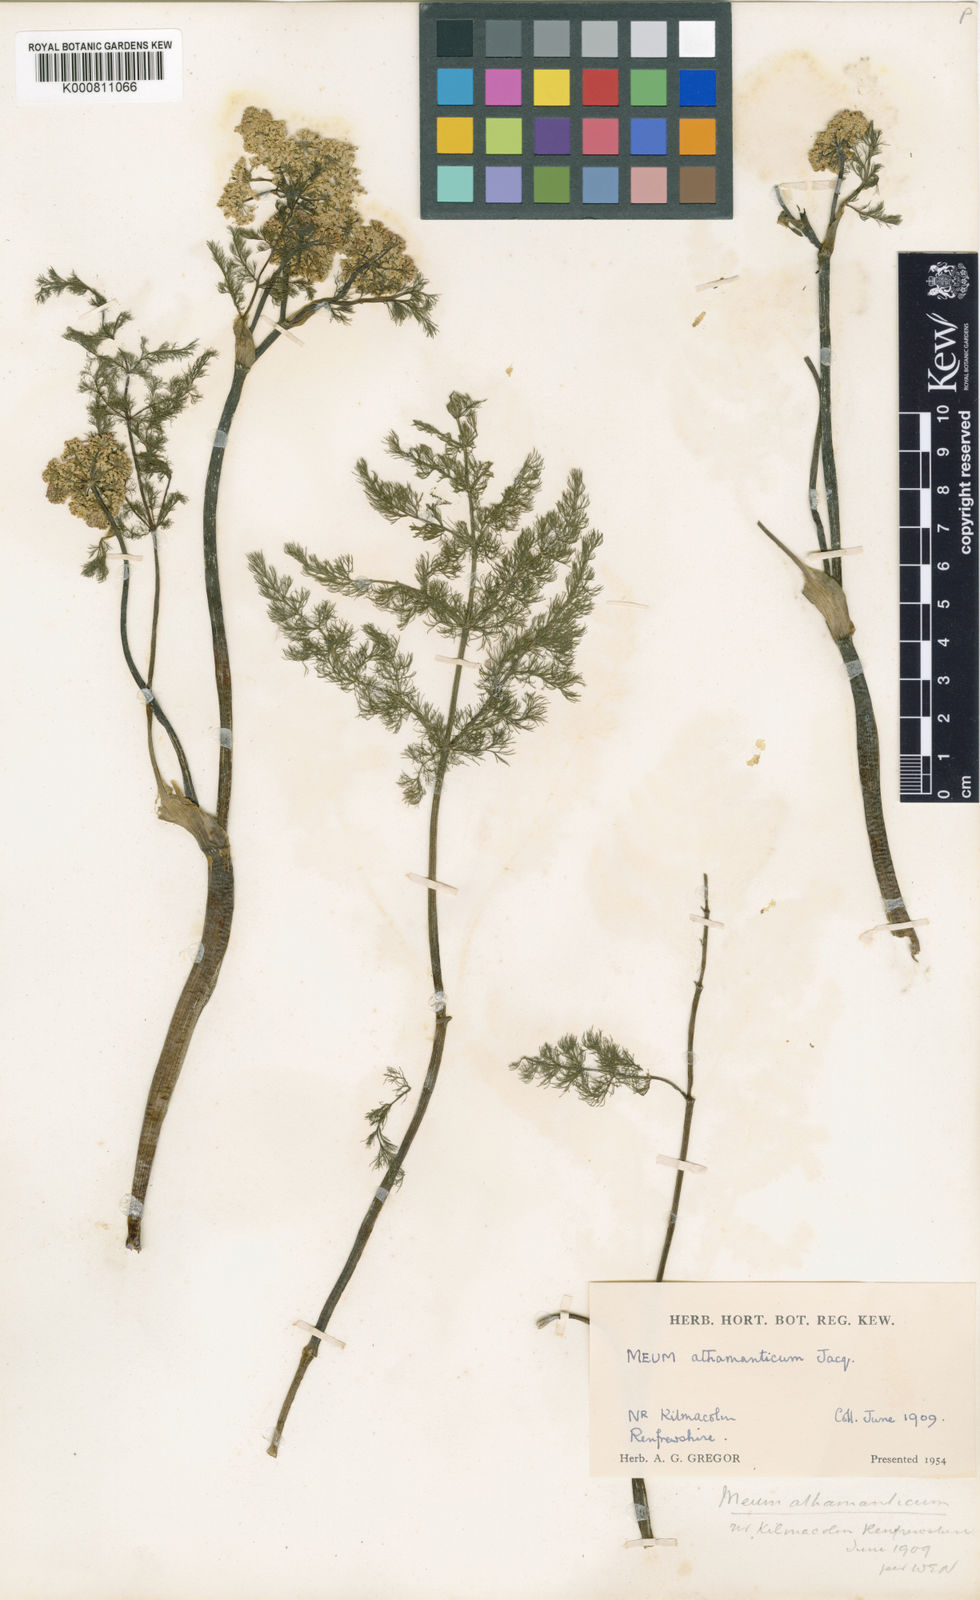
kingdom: Plantae
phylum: Tracheophyta
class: Magnoliopsida
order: Apiales
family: Apiaceae
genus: Meum
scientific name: Meum athamanticum
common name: Spignel
